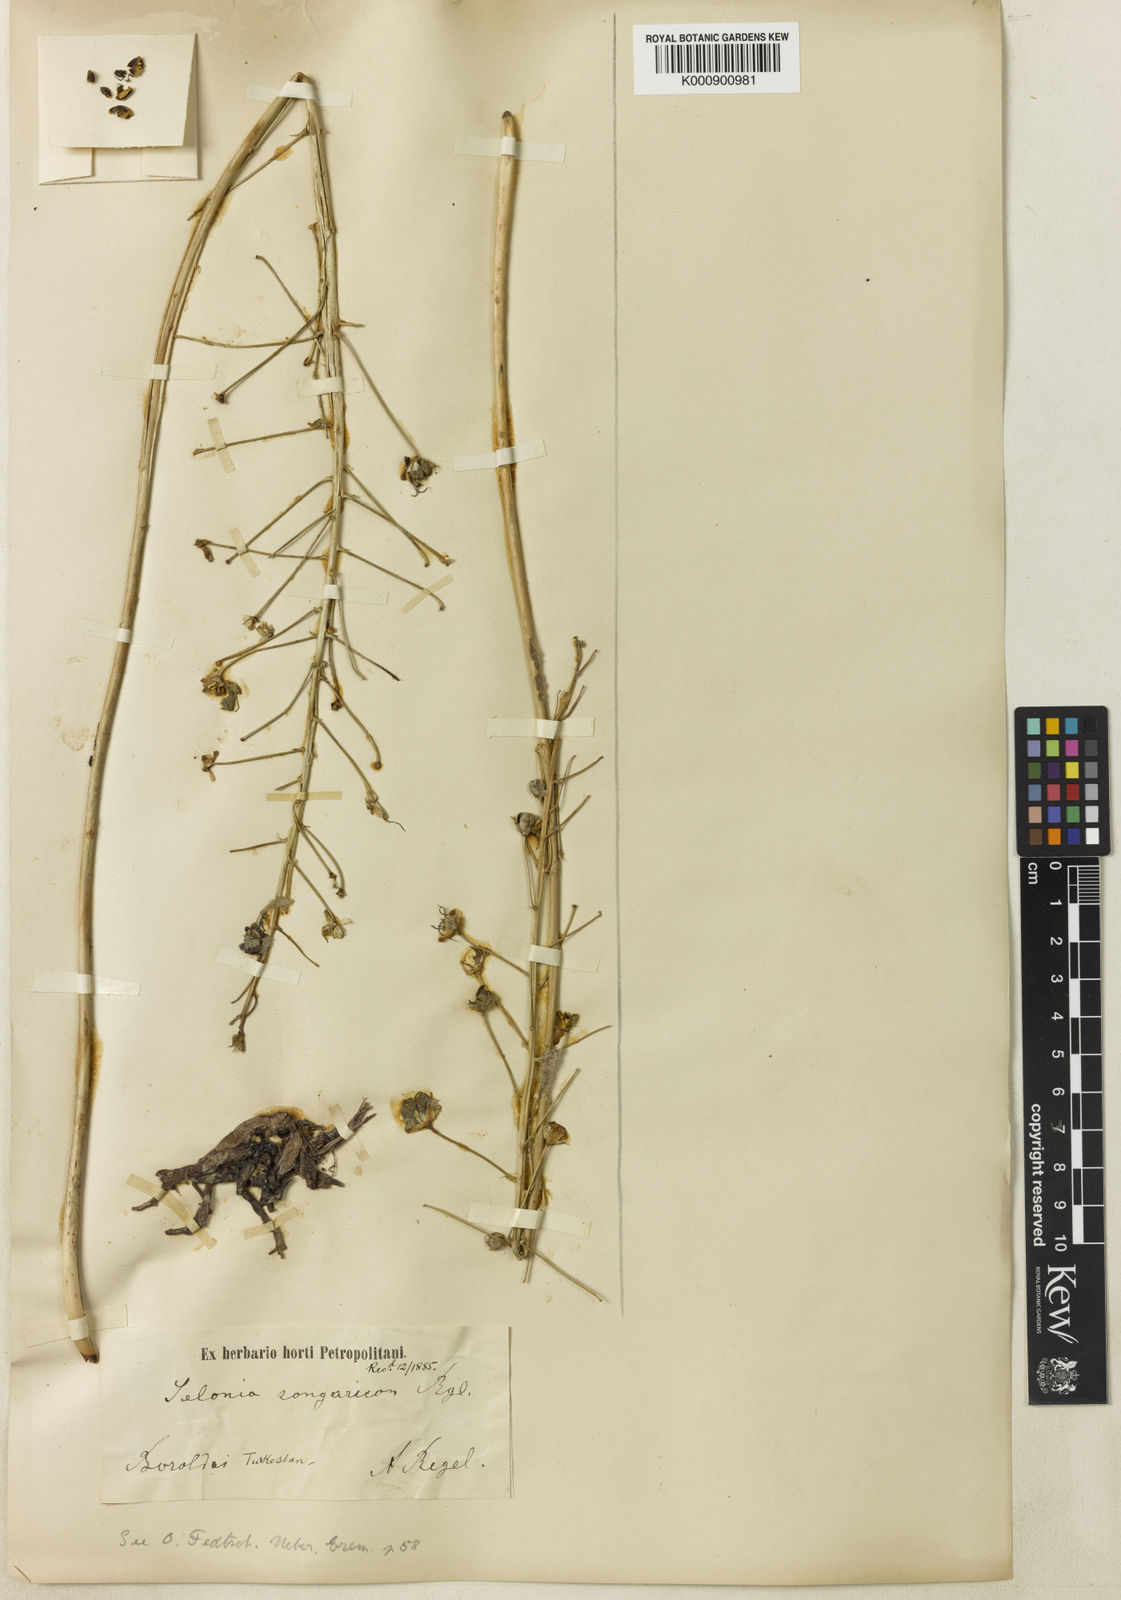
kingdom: Plantae
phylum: Tracheophyta
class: Liliopsida
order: Asparagales
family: Asphodelaceae
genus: Eremurus
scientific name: Eremurus soogdianus
